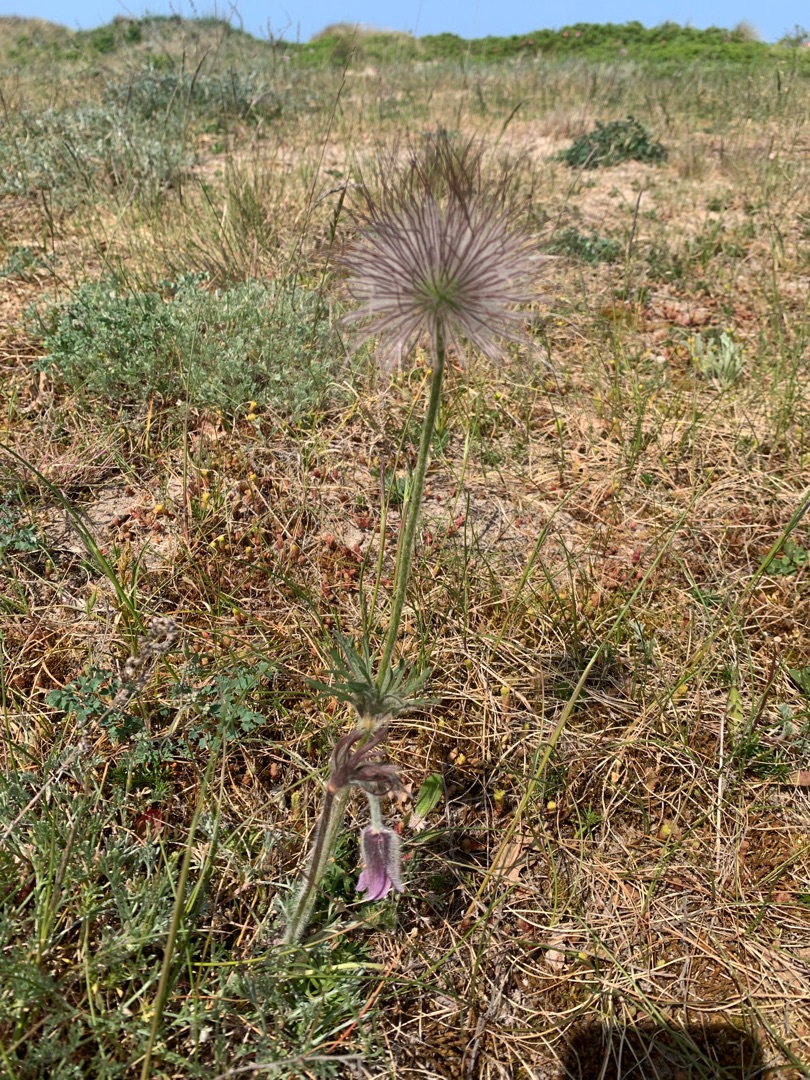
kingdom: Plantae
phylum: Tracheophyta
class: Magnoliopsida
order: Ranunculales
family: Ranunculaceae
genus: Pulsatilla
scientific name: Pulsatilla pratensis
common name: Nikkende kobjælde
